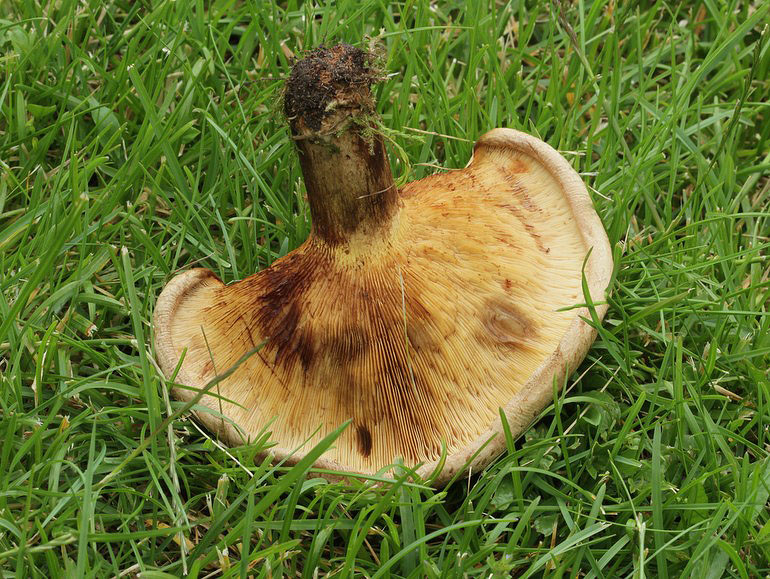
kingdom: Fungi
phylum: Basidiomycota
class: Agaricomycetes
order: Boletales
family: Paxillaceae
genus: Paxillus
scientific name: Paxillus involutus
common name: almindelig netbladhat
